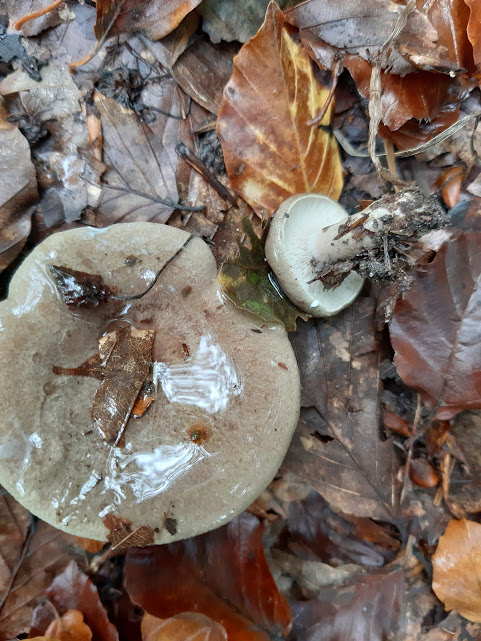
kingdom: Fungi
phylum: Basidiomycota
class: Agaricomycetes
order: Russulales
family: Russulaceae
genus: Lactarius
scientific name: Lactarius blennius
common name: dråbeplettet mælkehat
